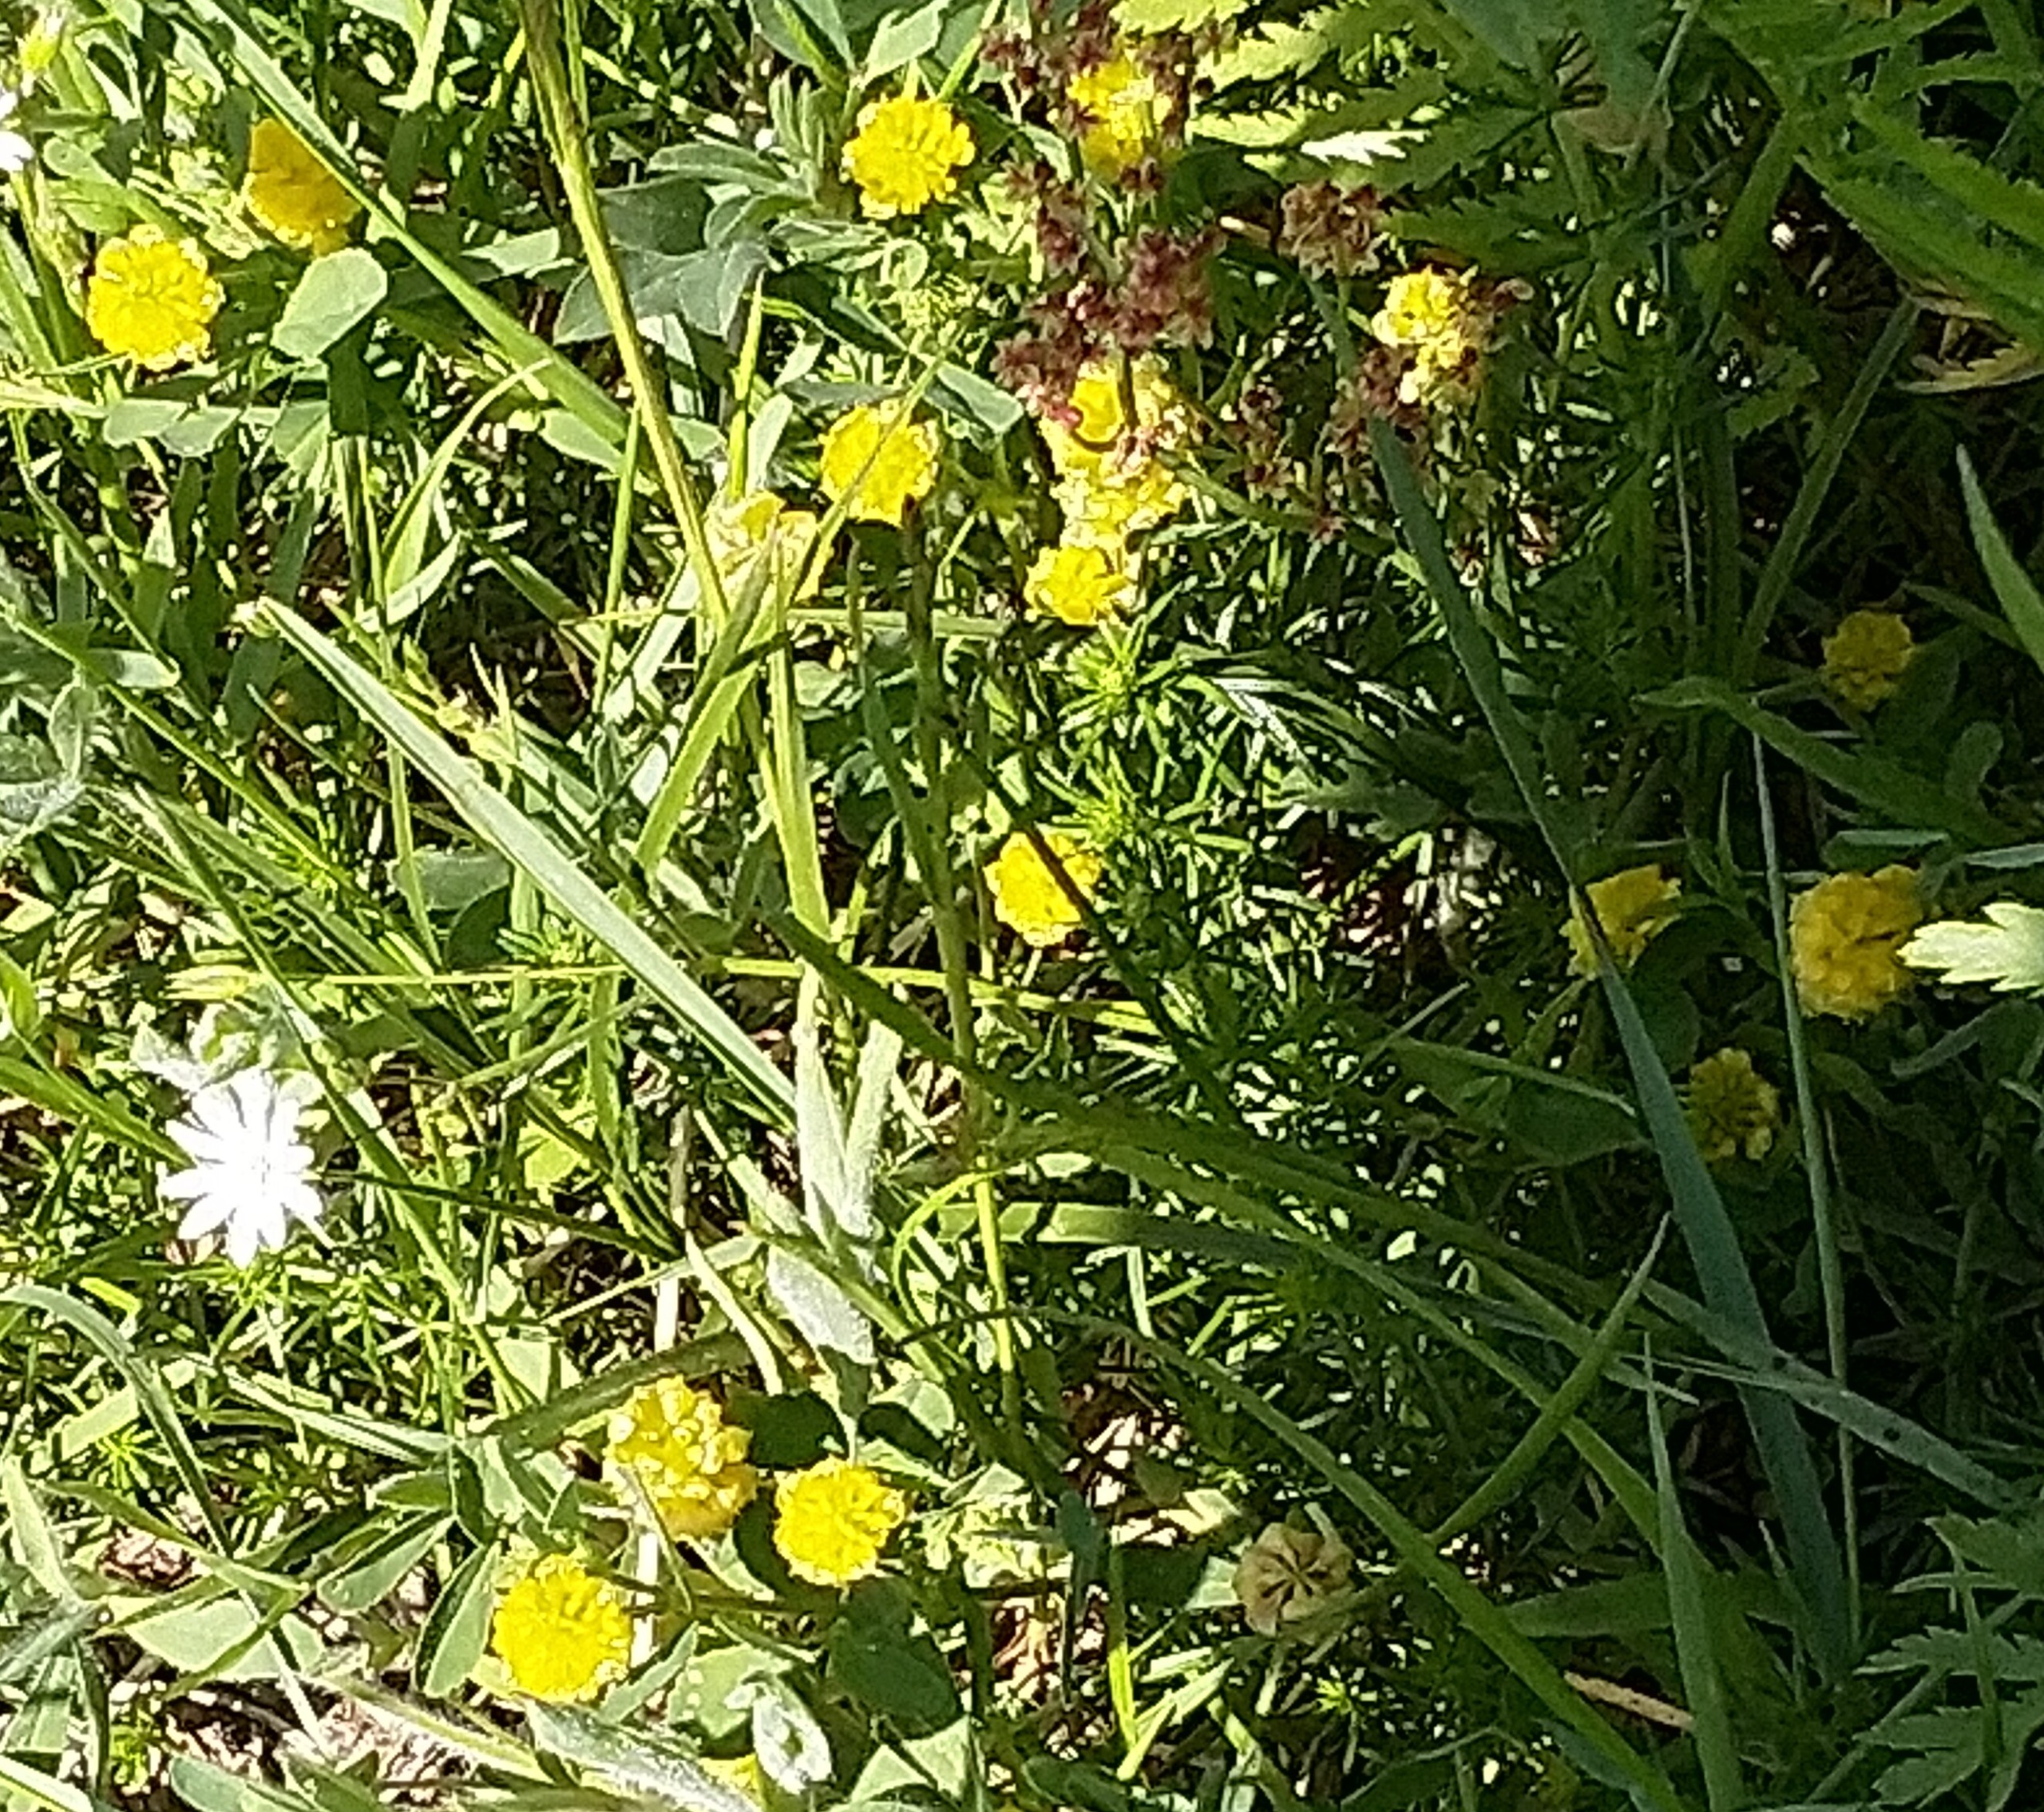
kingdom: Plantae
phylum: Tracheophyta
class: Magnoliopsida
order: Fabales
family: Fabaceae
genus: Trifolium
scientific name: Trifolium campestre
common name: Gul kløver
